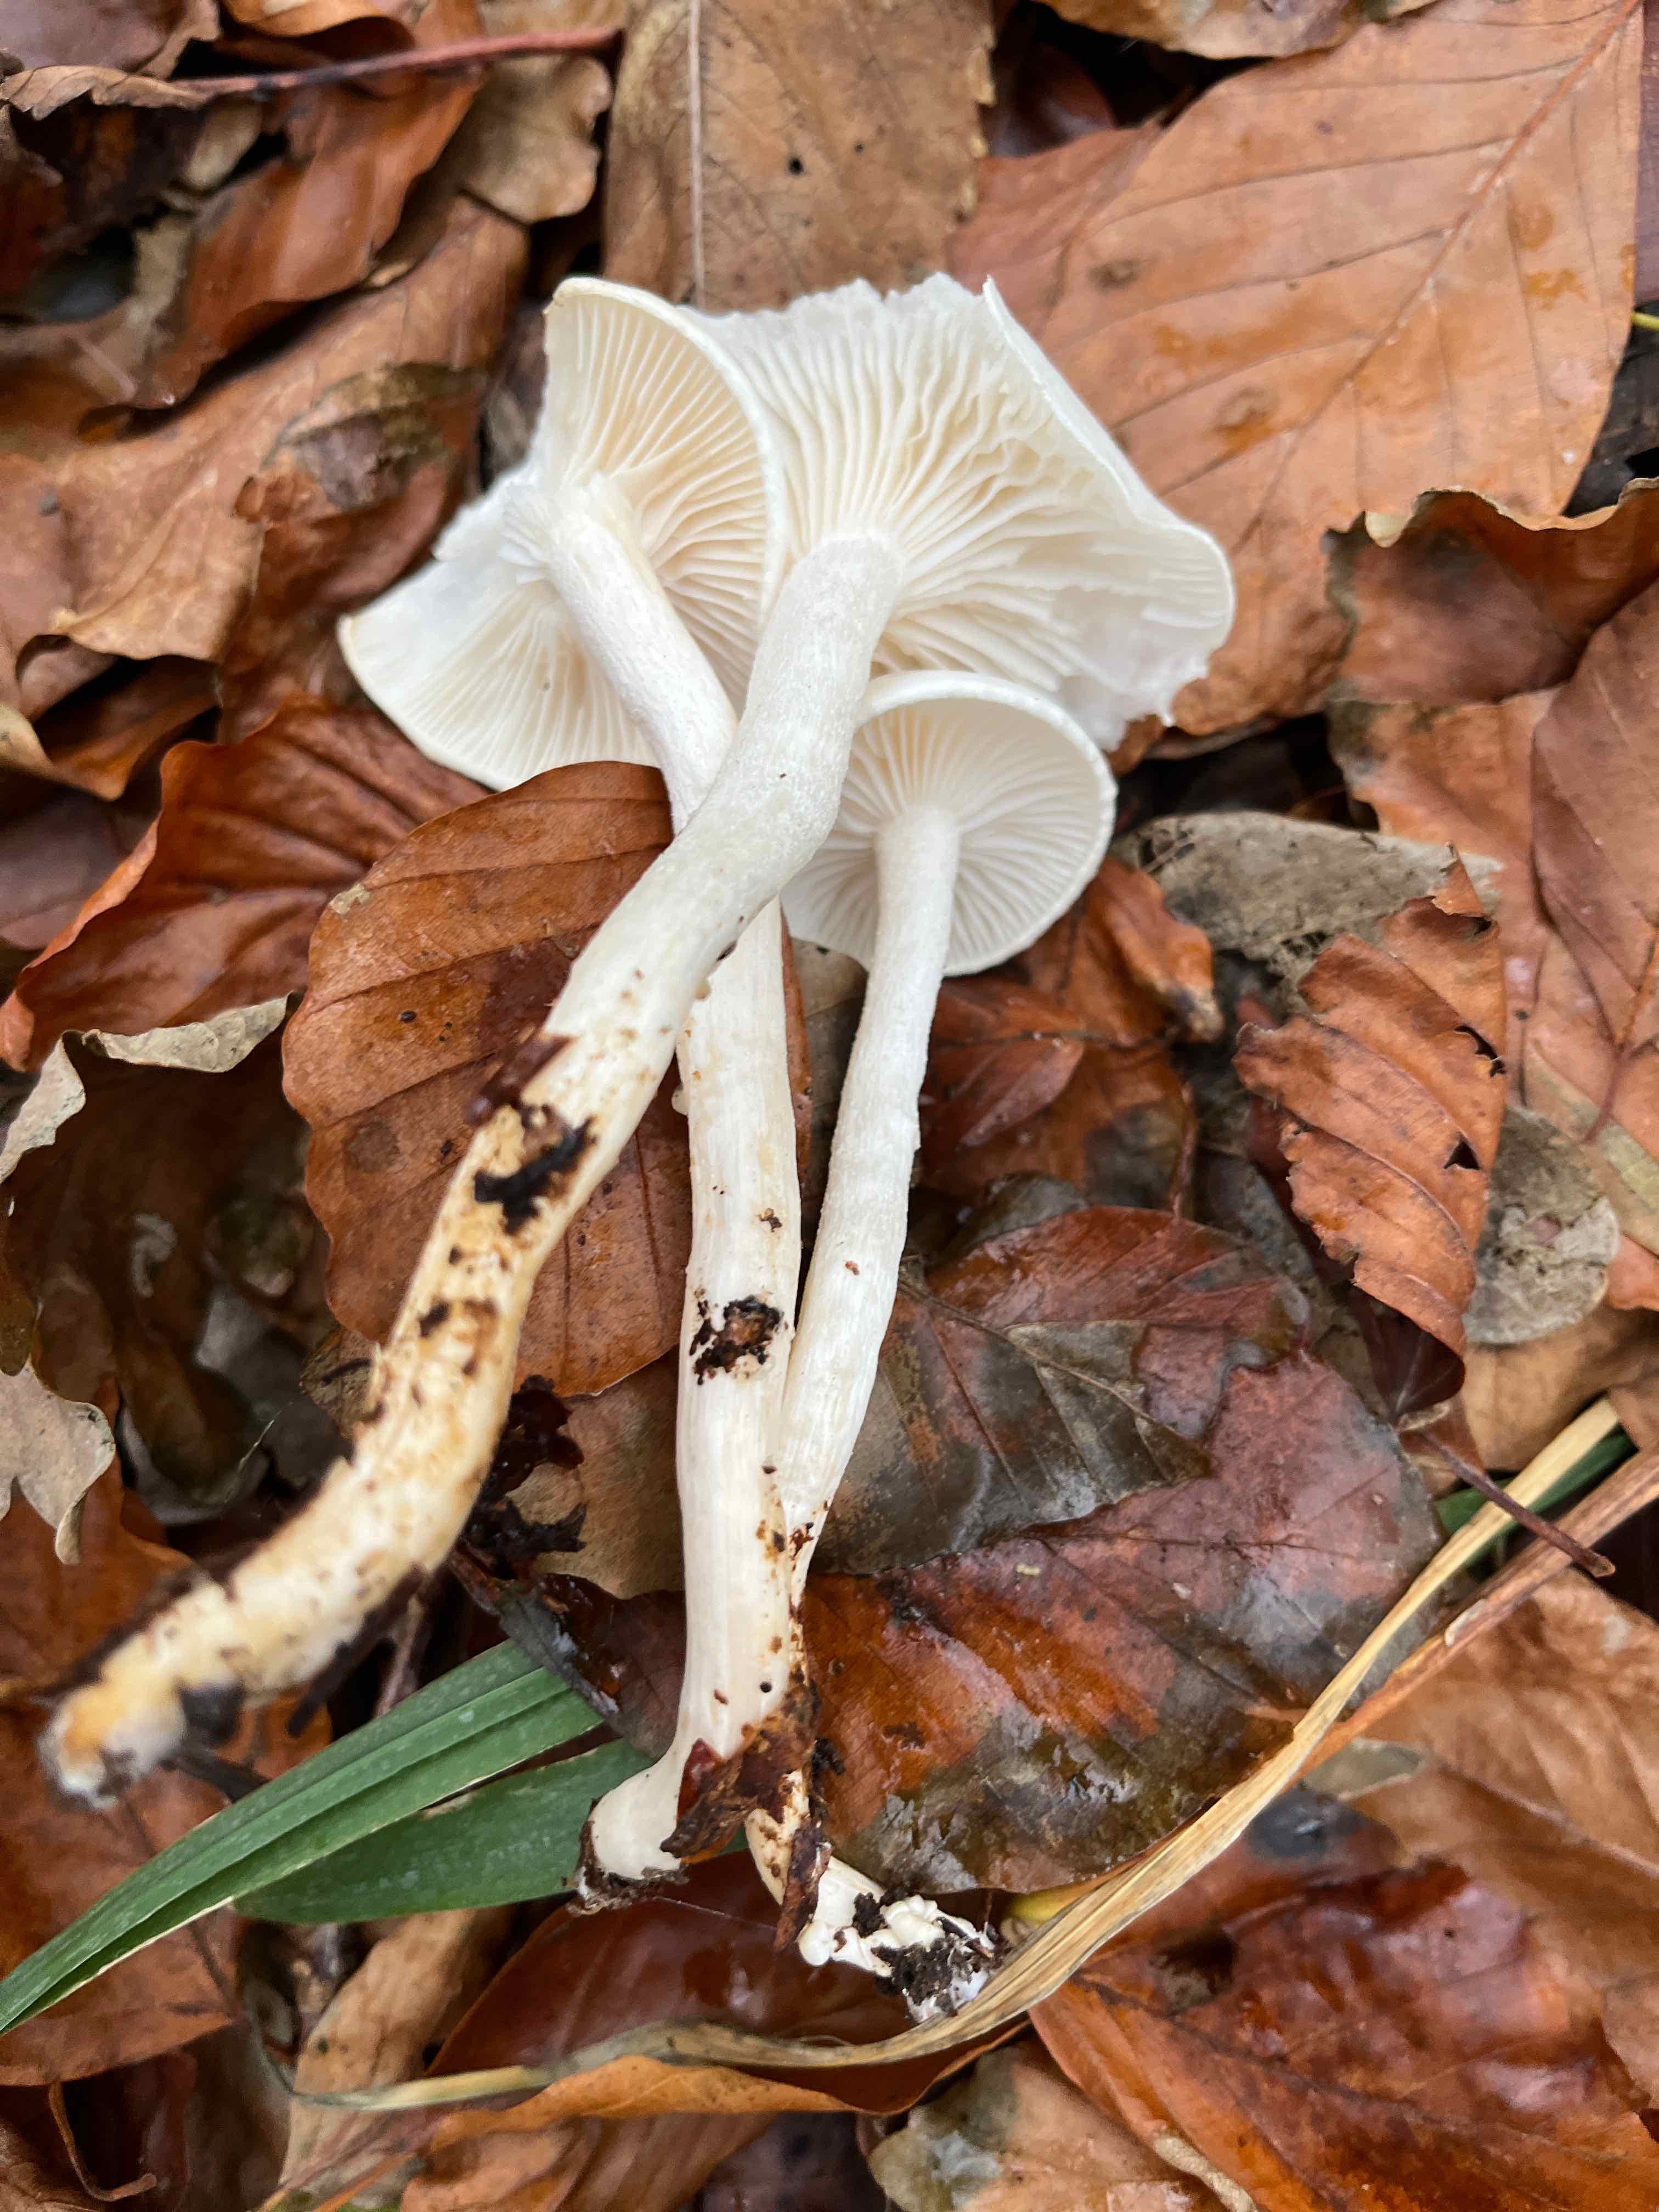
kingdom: Fungi
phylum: Basidiomycota
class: Agaricomycetes
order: Agaricales
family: Hygrophoraceae
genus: Hygrophorus
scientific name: Hygrophorus
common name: sneglehat
